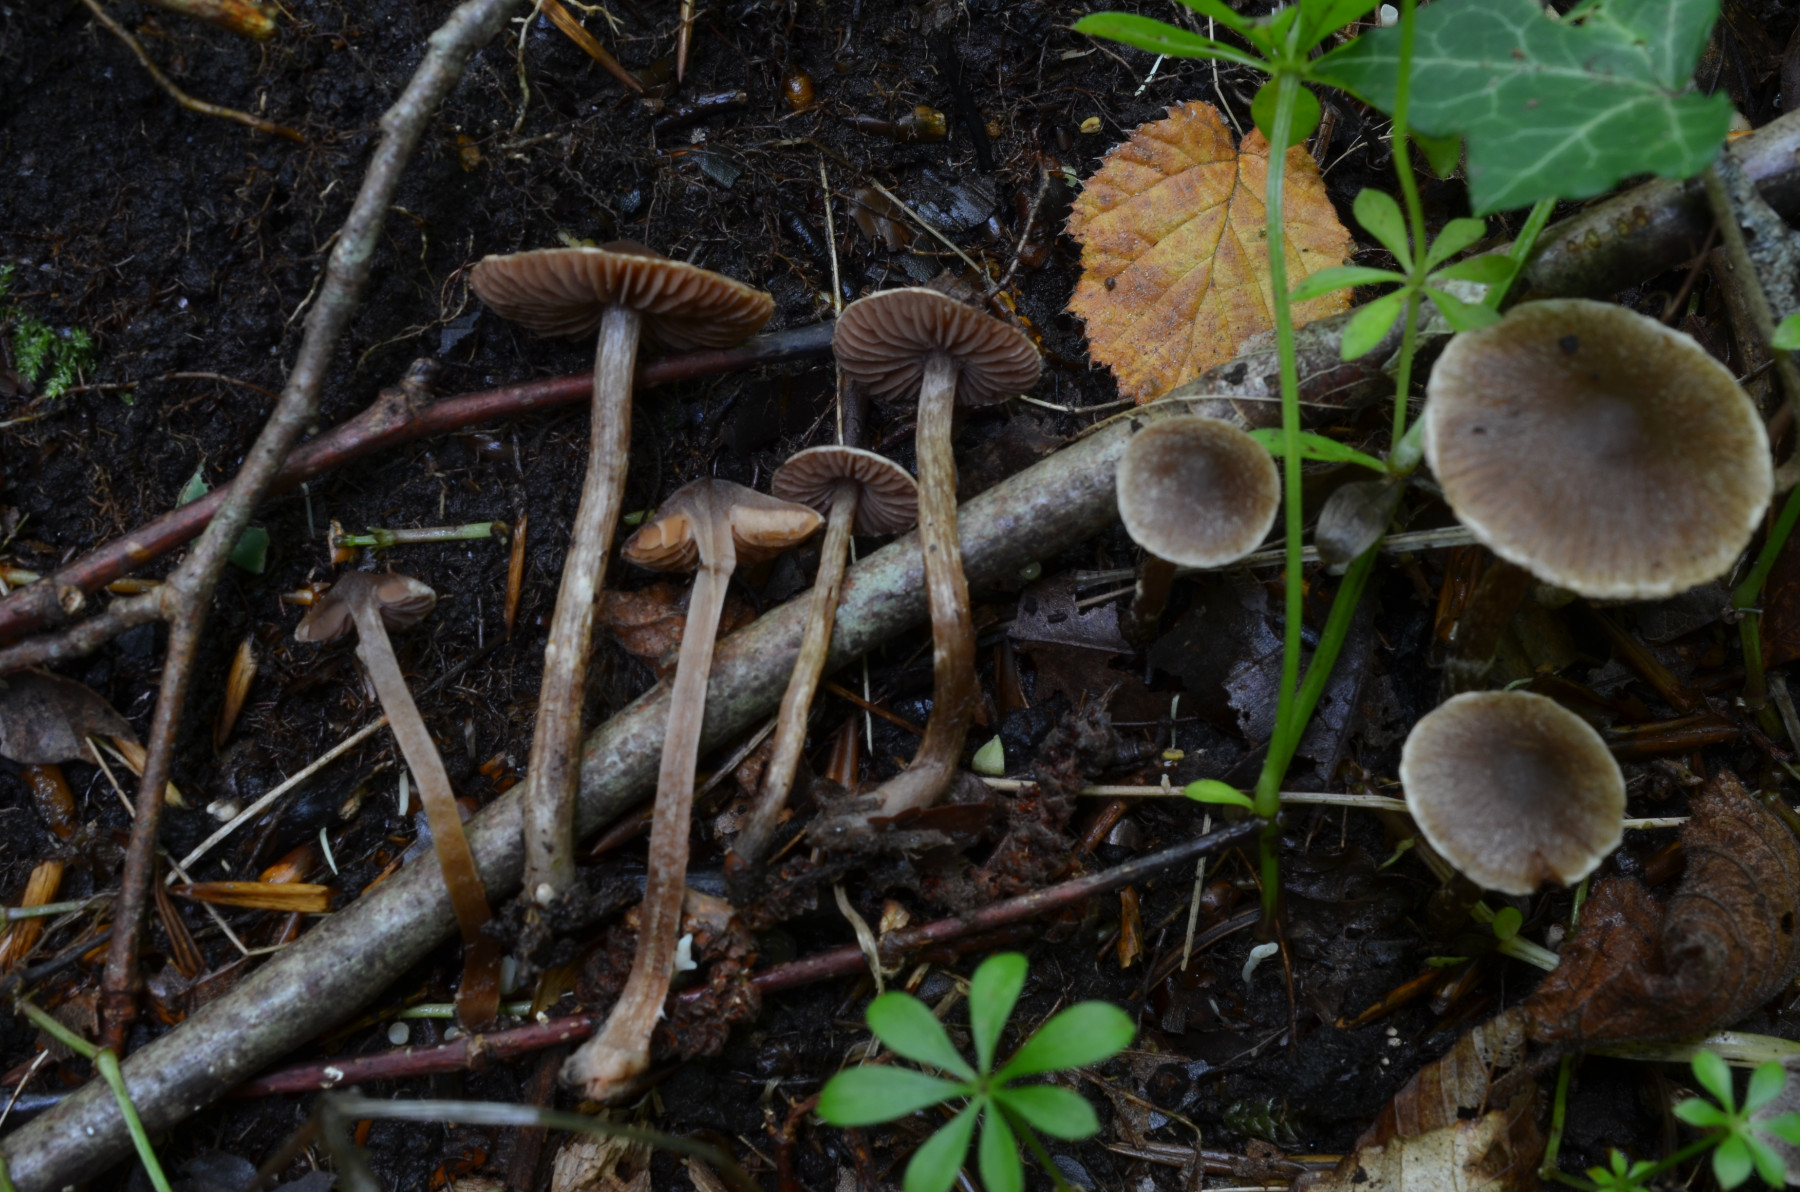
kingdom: Fungi
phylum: Basidiomycota
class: Agaricomycetes
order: Agaricales
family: Cortinariaceae
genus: Cortinarius
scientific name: Cortinarius pilatii
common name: Piláts slørhat
